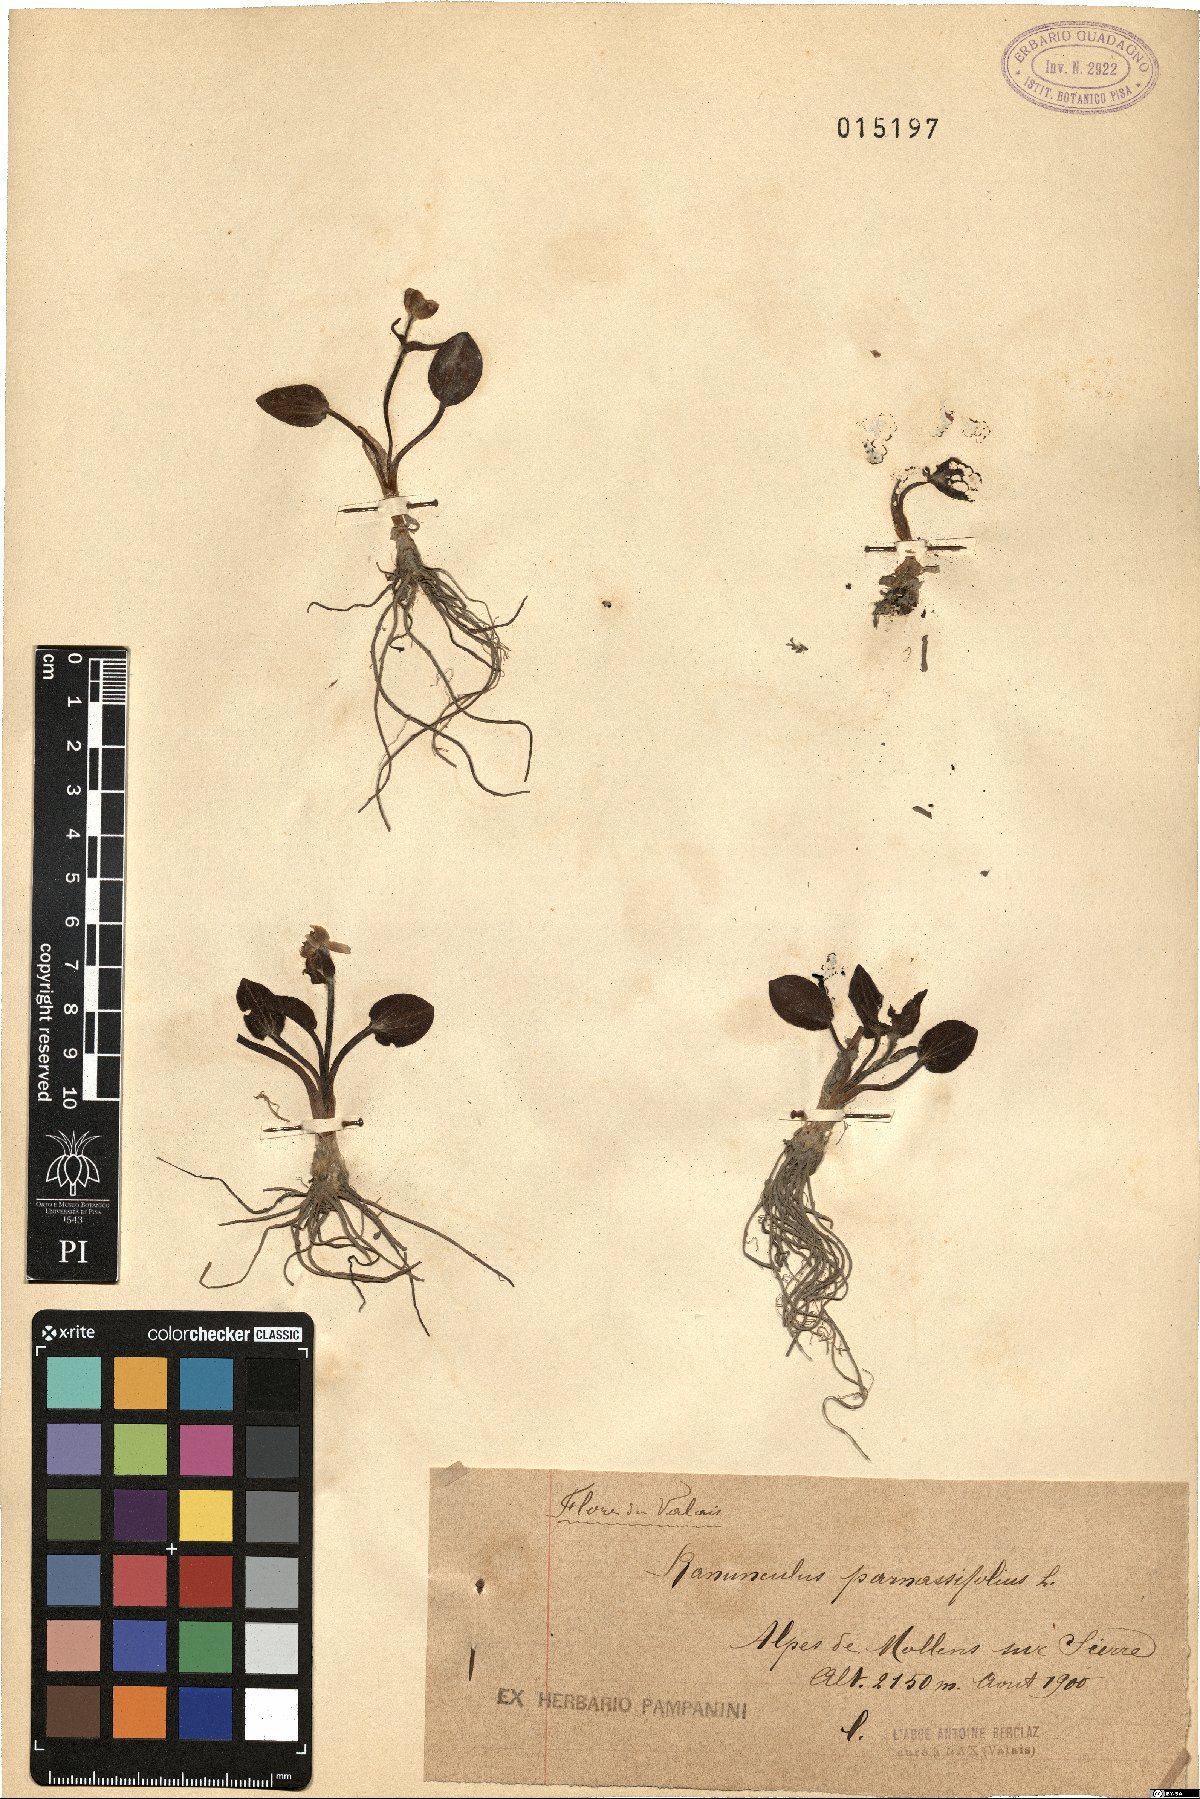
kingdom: Plantae
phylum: Tracheophyta
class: Magnoliopsida
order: Ranunculales
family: Ranunculaceae
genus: Ranunculus
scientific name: Ranunculus parnassiifolius
